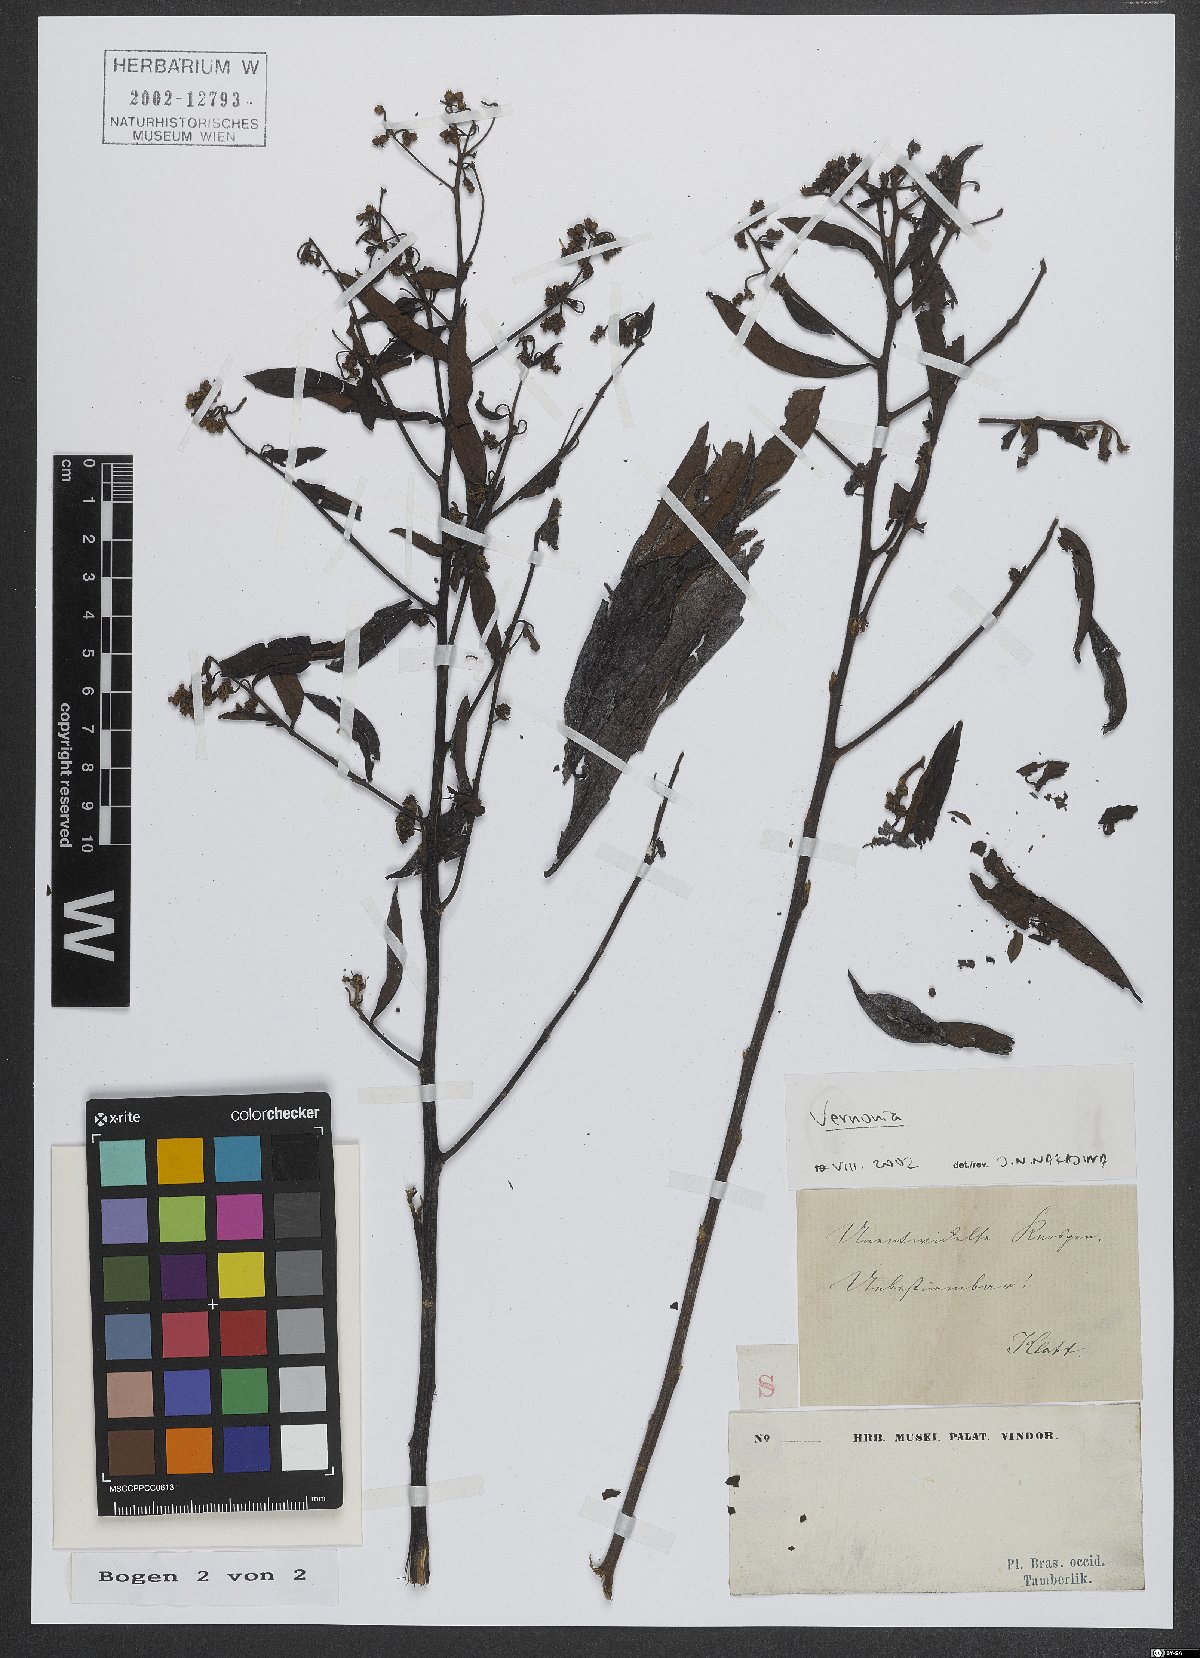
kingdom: Plantae
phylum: Tracheophyta
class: Magnoliopsida
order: Asterales
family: Asteraceae
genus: Vernonia
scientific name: Vernonia
